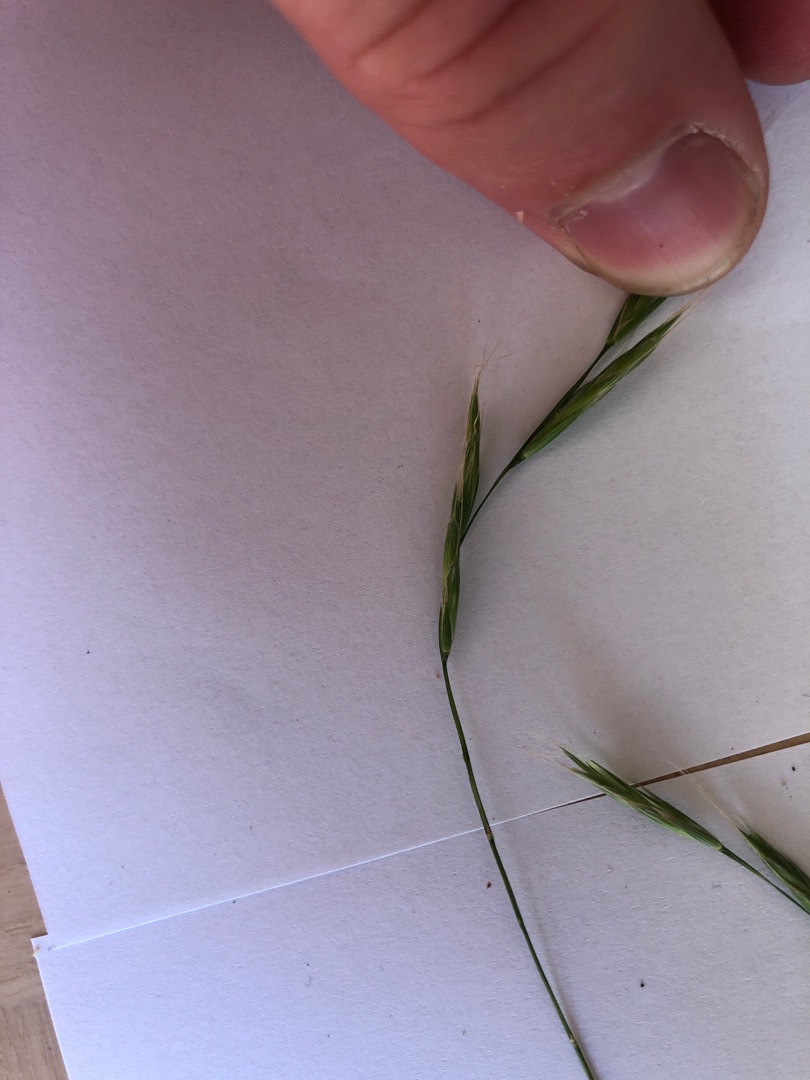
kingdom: Plantae
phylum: Tracheophyta
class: Liliopsida
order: Poales
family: Poaceae
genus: Brachypodium
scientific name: Brachypodium sylvaticum
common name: Skov-stilkaks
